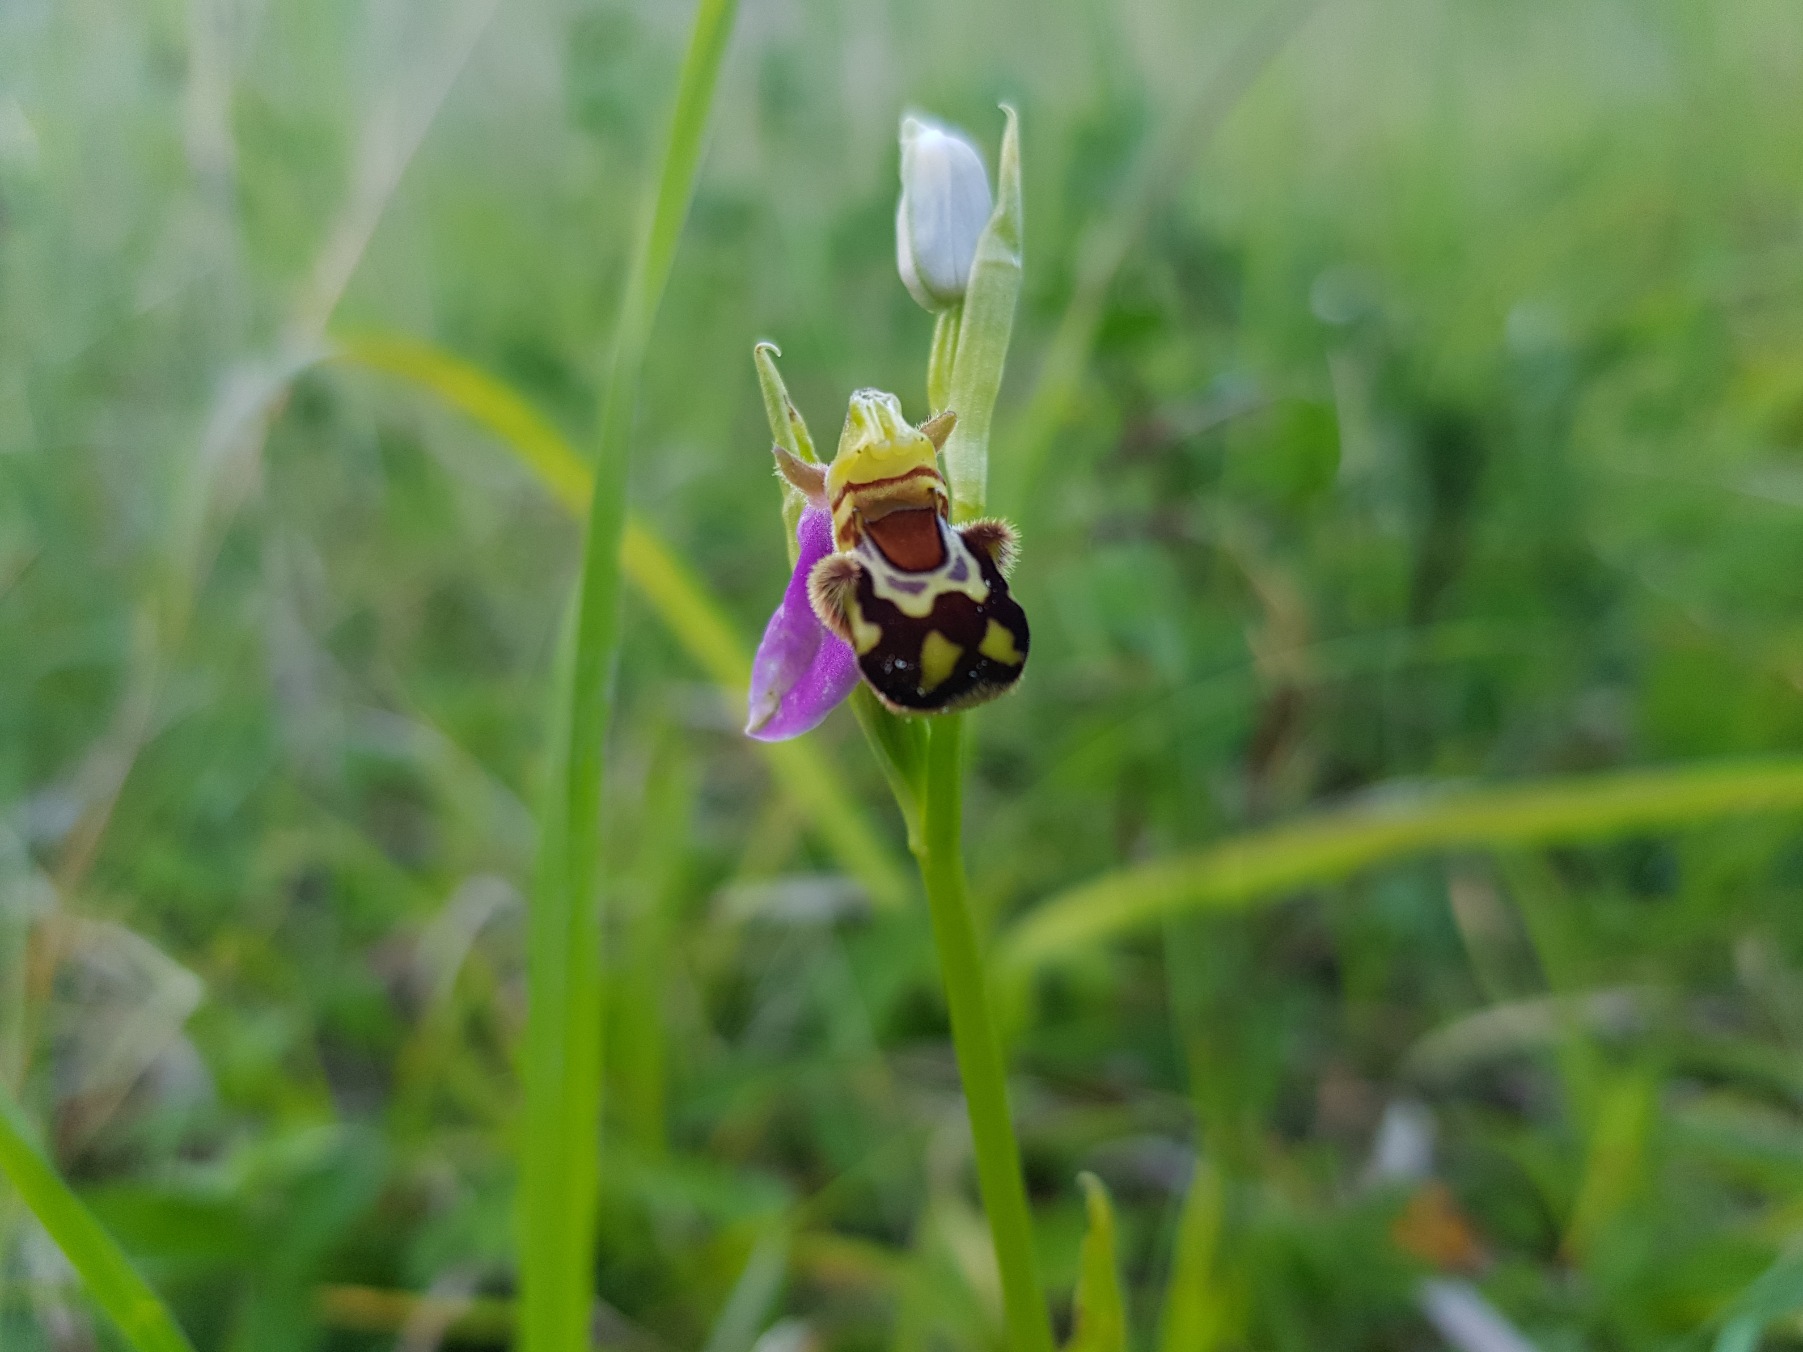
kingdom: Plantae
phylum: Tracheophyta
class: Liliopsida
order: Asparagales
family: Orchidaceae
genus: Ophrys
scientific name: Ophrys apifera
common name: Biblomst
